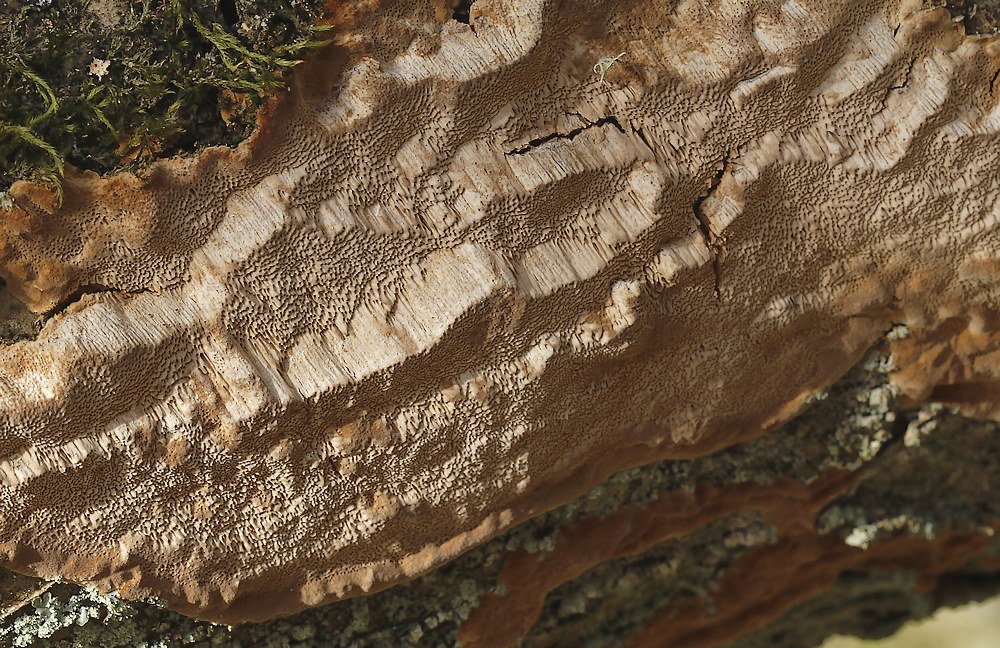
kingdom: Fungi
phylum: Basidiomycota
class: Agaricomycetes
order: Hymenochaetales
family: Hymenochaetaceae
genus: Fuscoporia
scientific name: Fuscoporia ferrea
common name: skorpe-ildporesvamp
